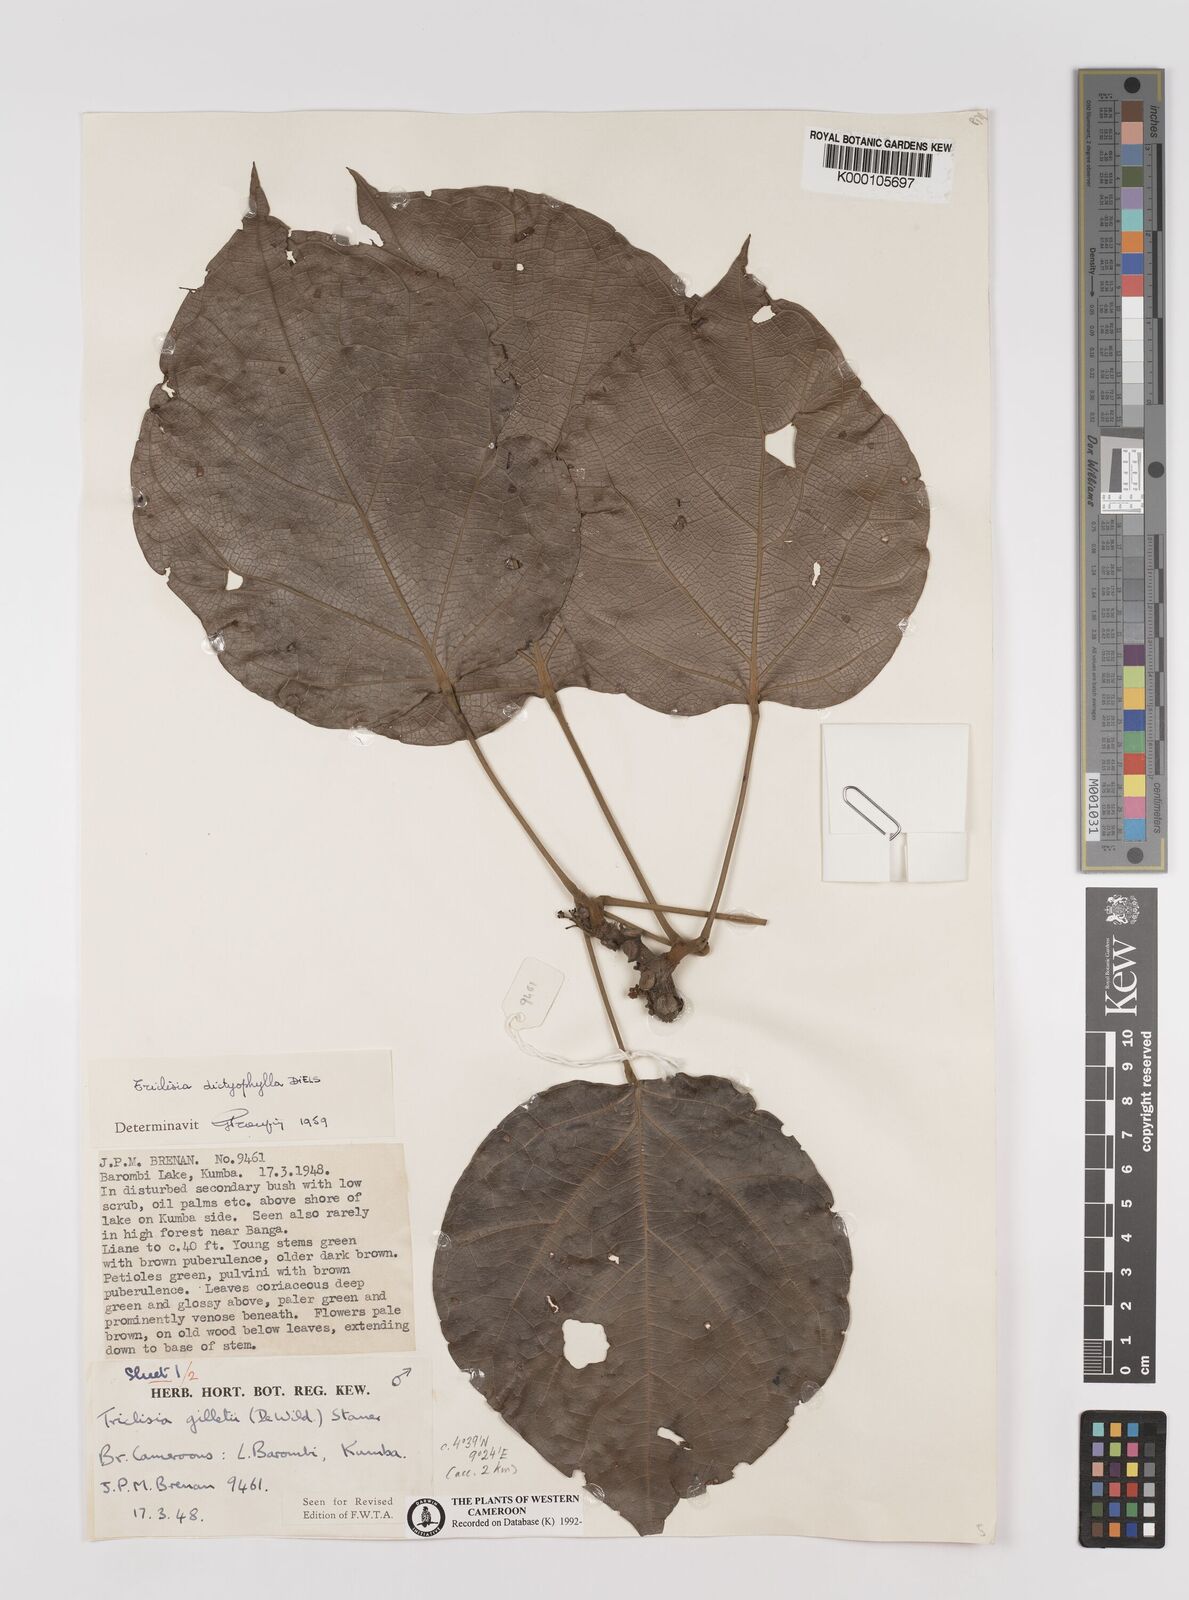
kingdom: Plantae
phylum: Tracheophyta
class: Magnoliopsida
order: Ranunculales
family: Menispermaceae
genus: Triclisia
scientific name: Triclisia dictyophylla
